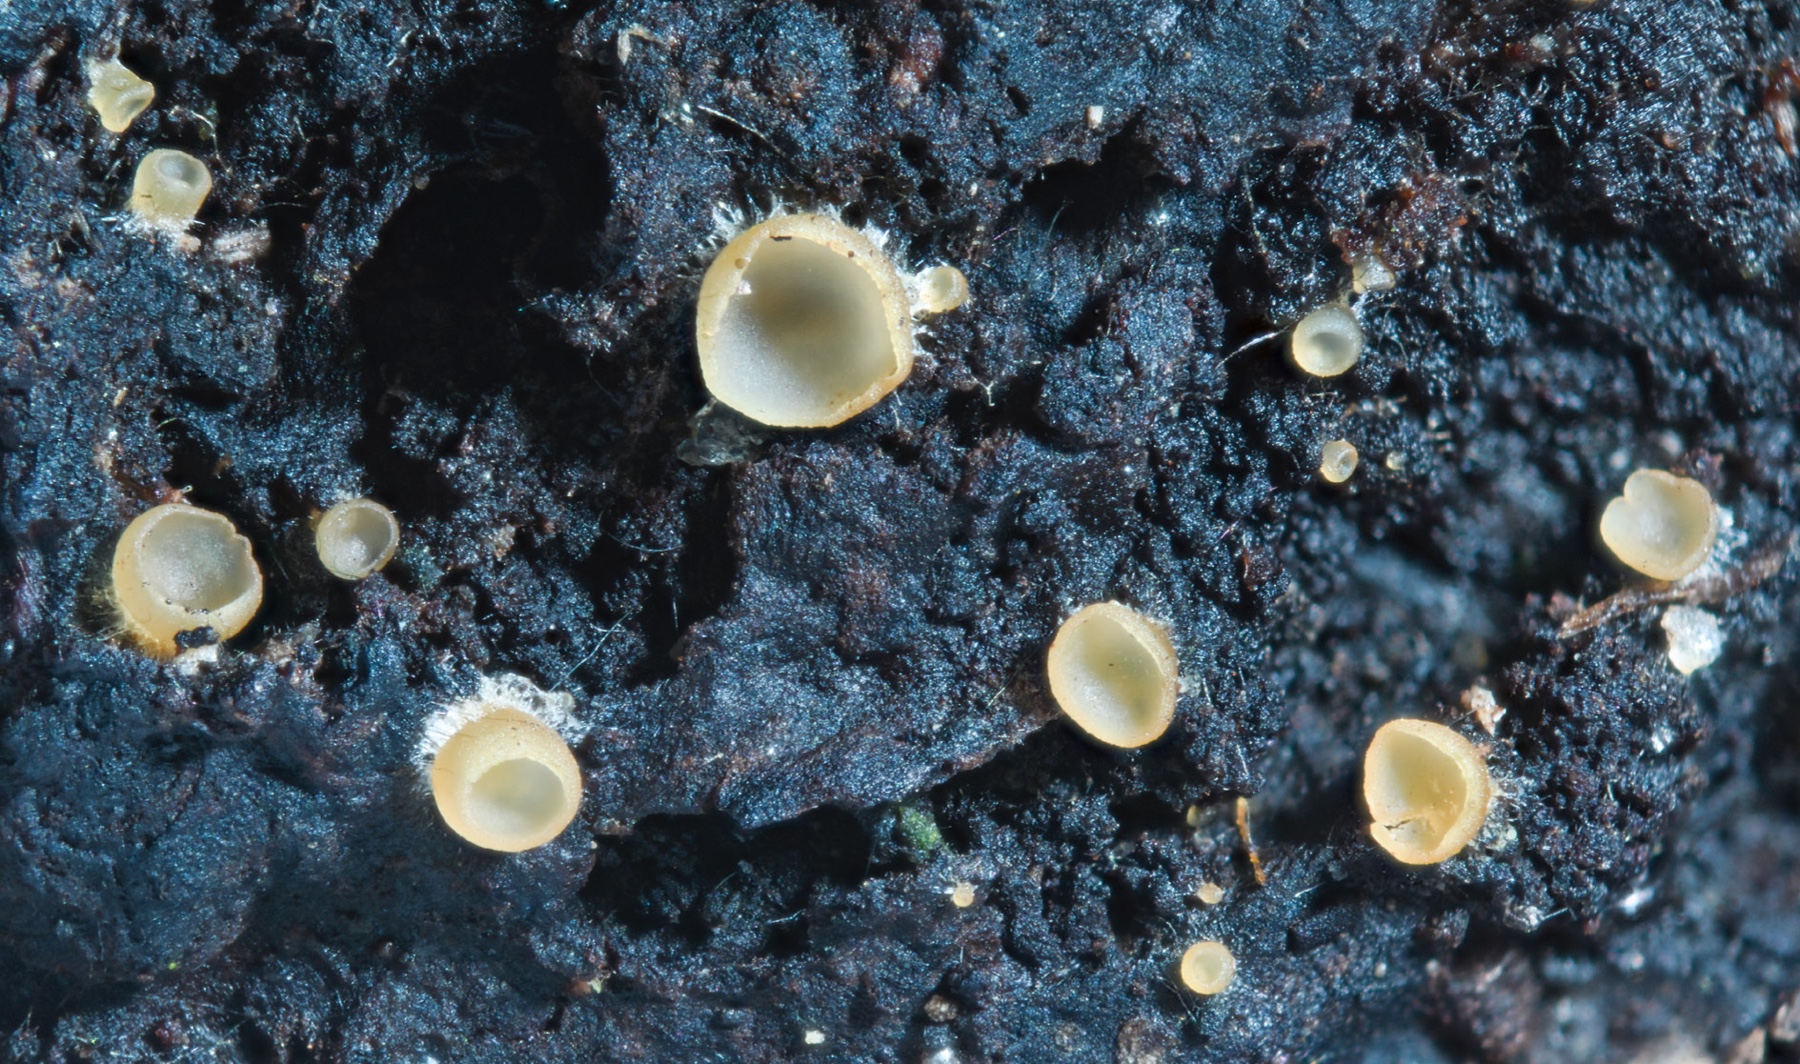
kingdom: Fungi
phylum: Ascomycota
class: Orbiliomycetes
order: Orbiliales
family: Orbiliaceae
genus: Hyalorbilia
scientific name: Hyalorbilia inflatula
